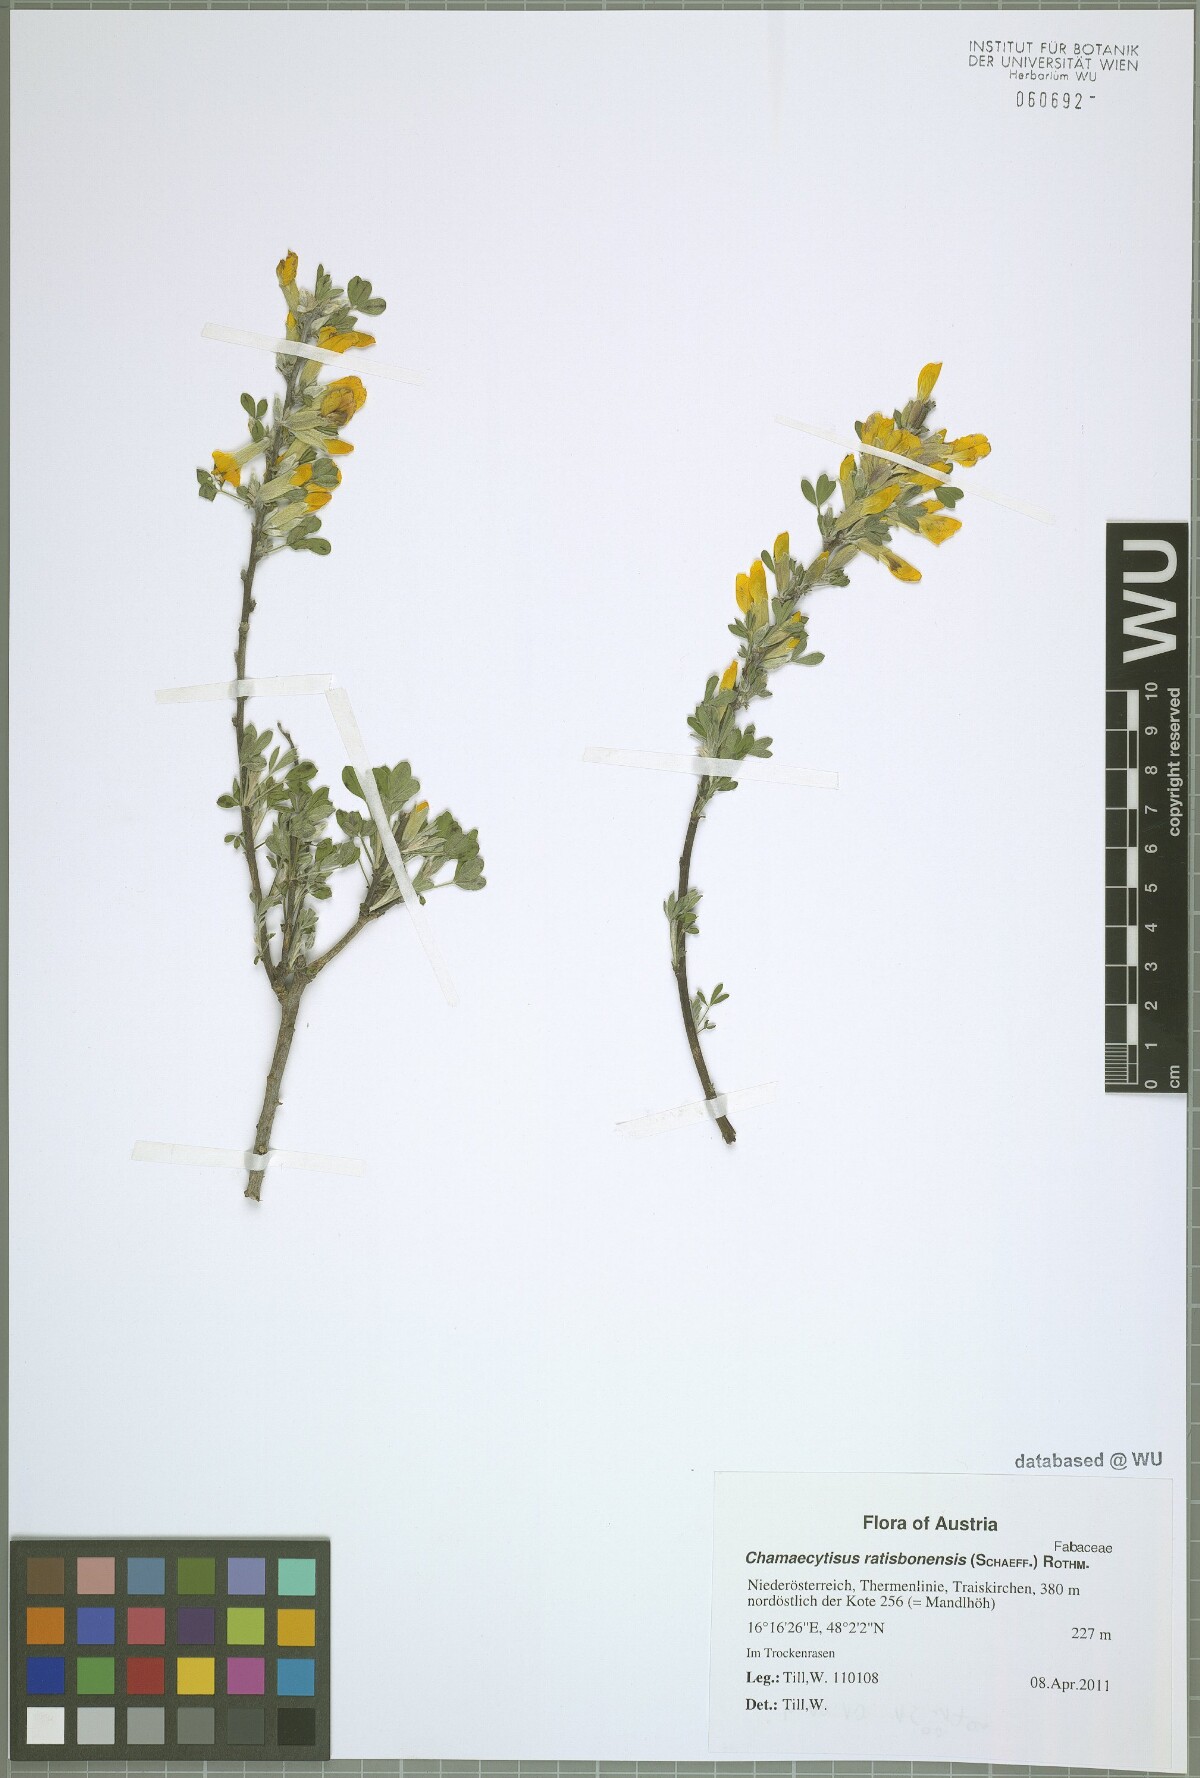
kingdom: Plantae
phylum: Tracheophyta
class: Magnoliopsida
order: Fabales
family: Fabaceae
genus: Chamaecytisus
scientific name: Chamaecytisus ratisbonensis
